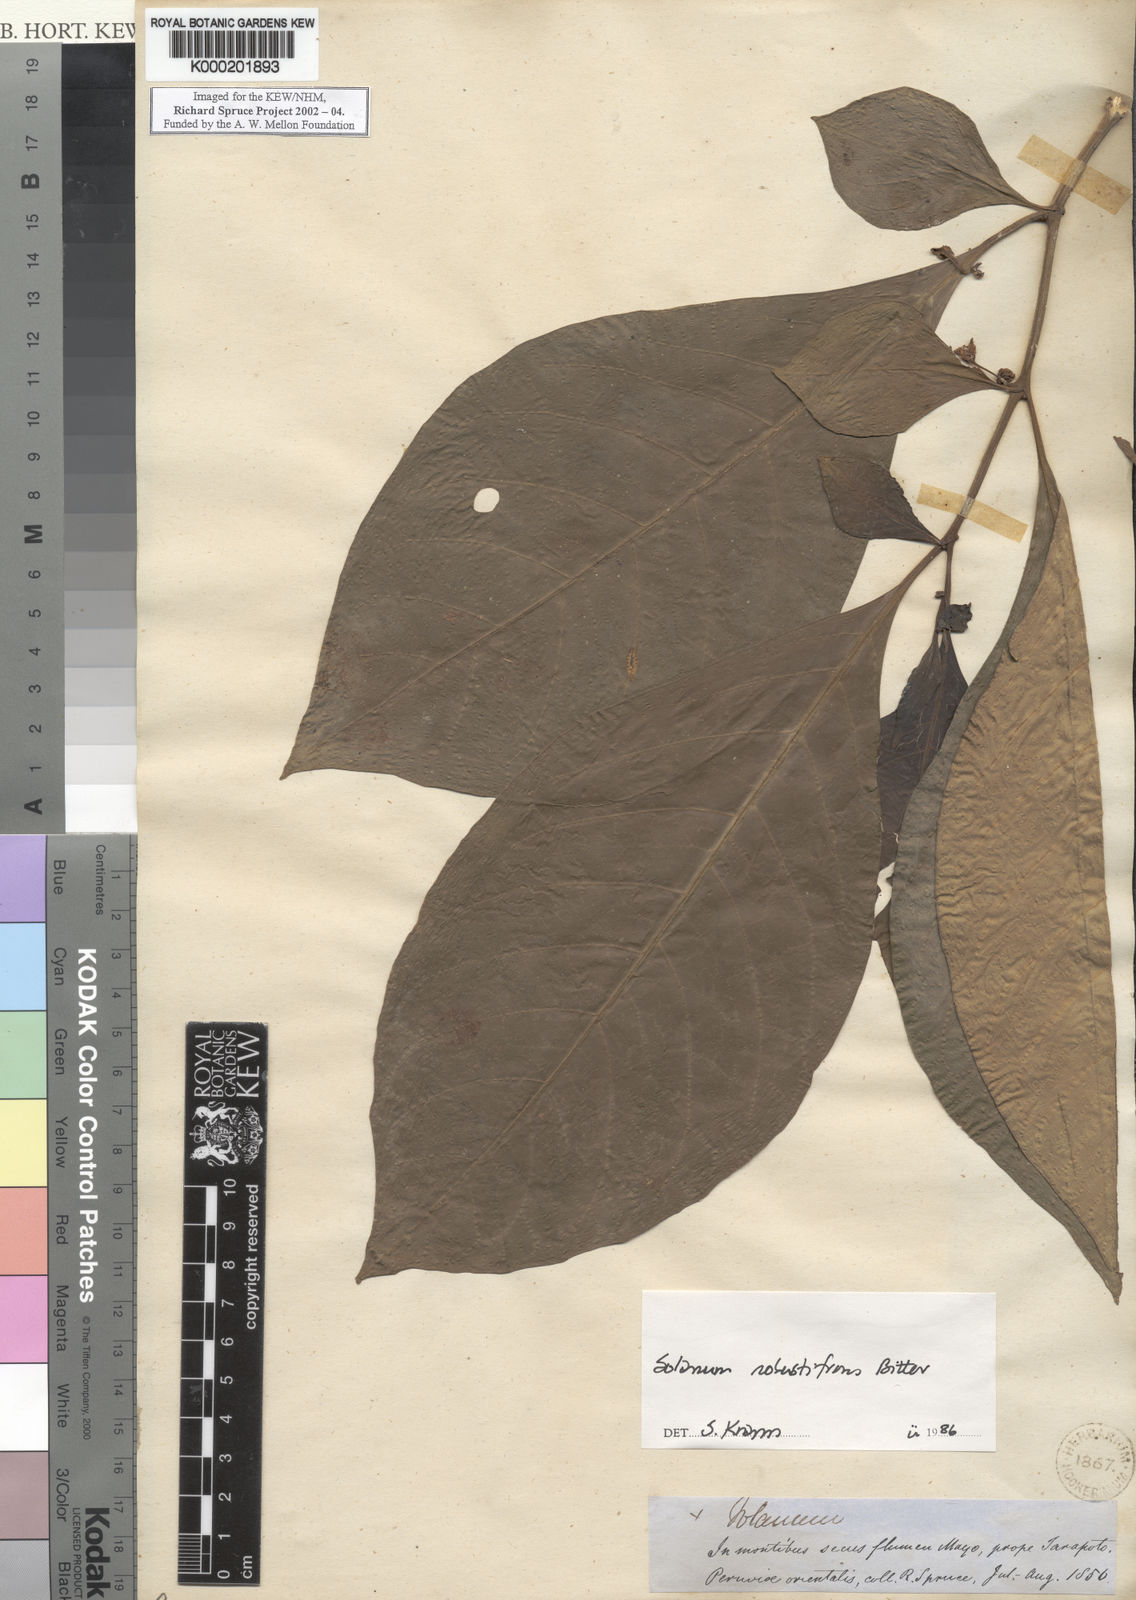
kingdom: Plantae
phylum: Tracheophyta
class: Magnoliopsida
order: Solanales
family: Solanaceae
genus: Solanum
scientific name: Solanum robustifrons
